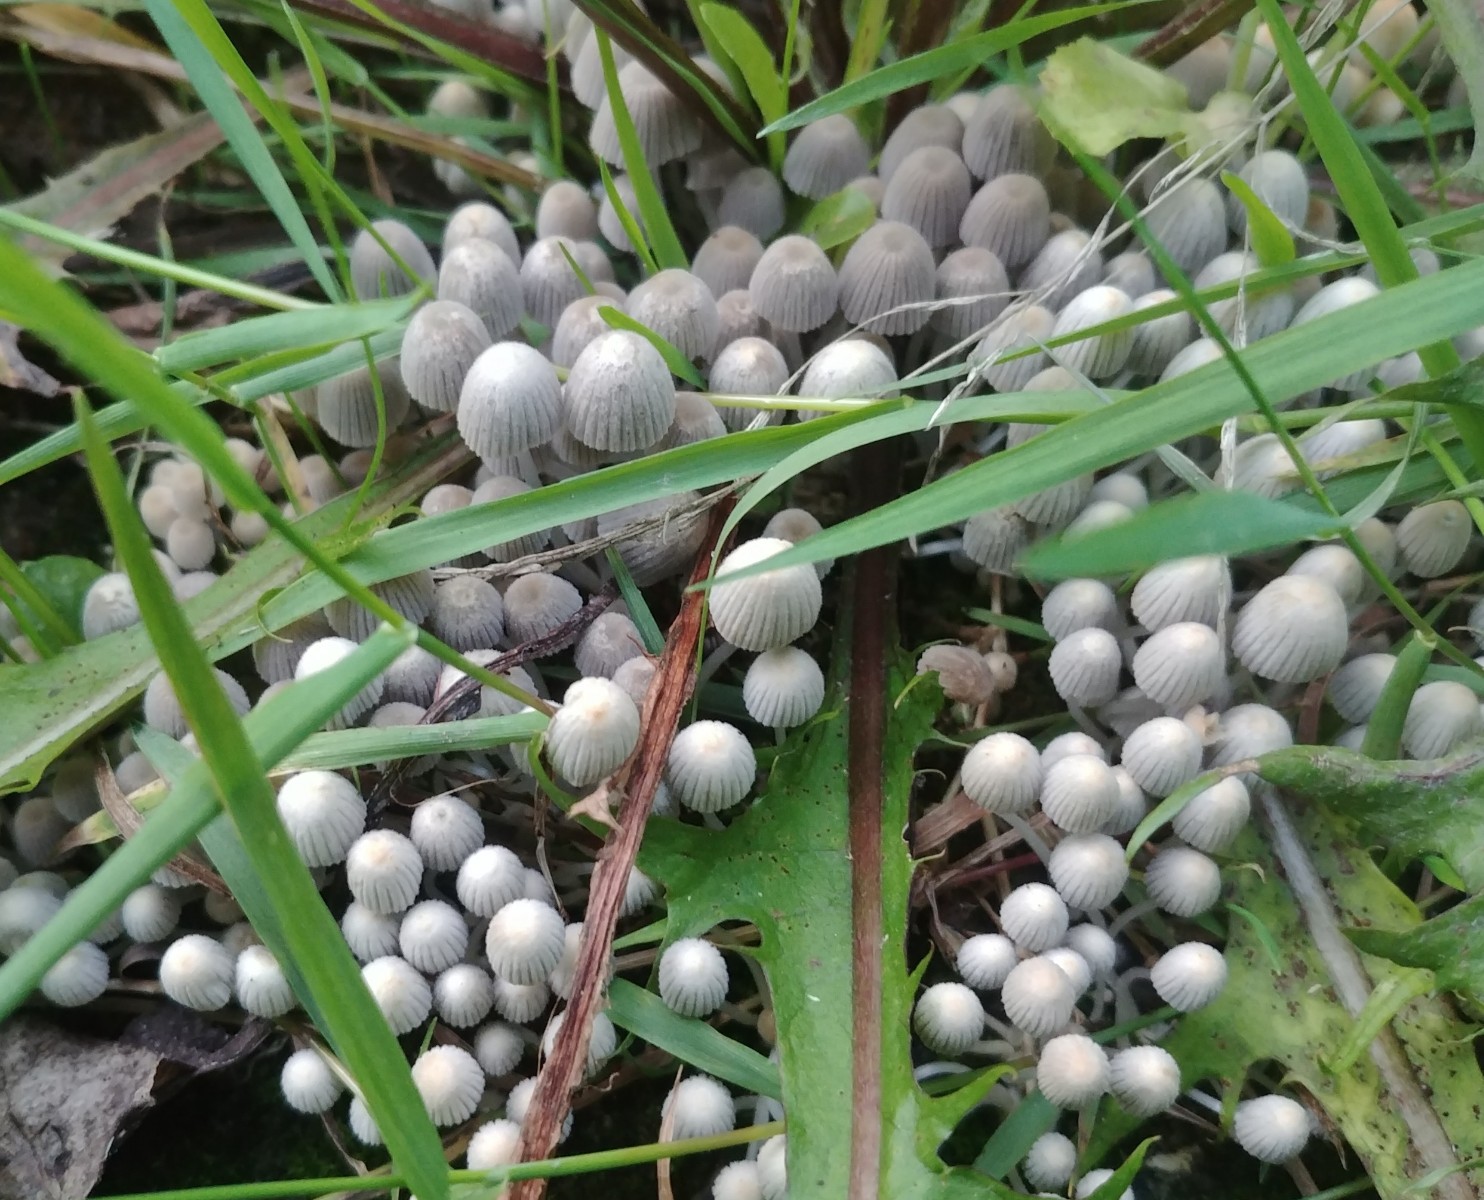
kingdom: Fungi
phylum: Basidiomycota
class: Agaricomycetes
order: Agaricales
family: Psathyrellaceae
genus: Coprinellus
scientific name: Coprinellus disseminatus
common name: bredsået blækhat
